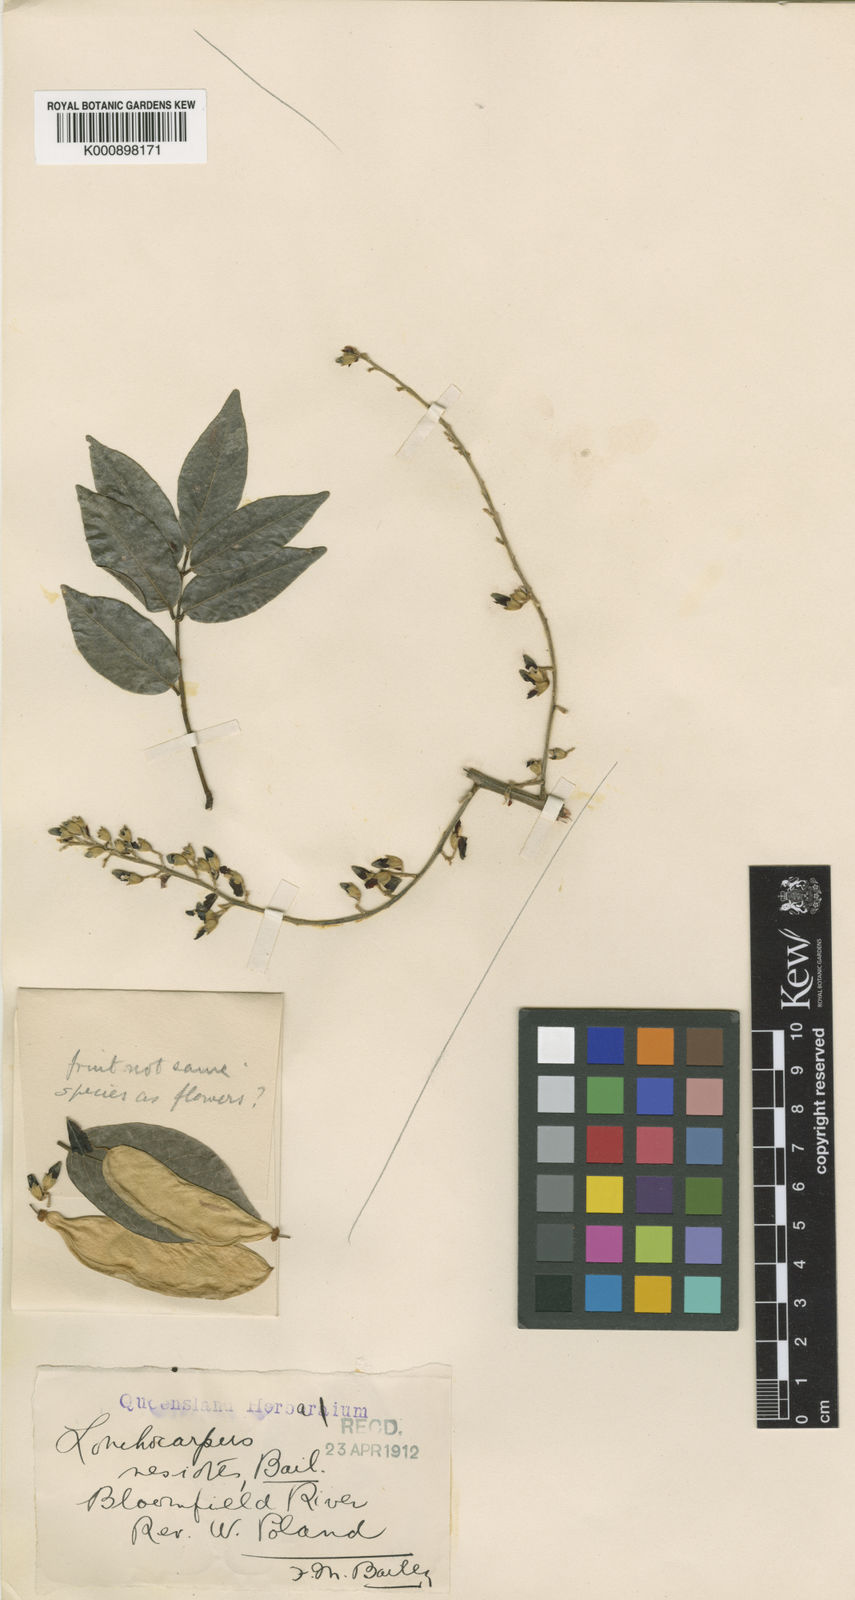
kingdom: Plantae
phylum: Tracheophyta
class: Magnoliopsida
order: Fabales
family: Fabaceae
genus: Austrosteenisia
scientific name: Austrosteenisia blackii
